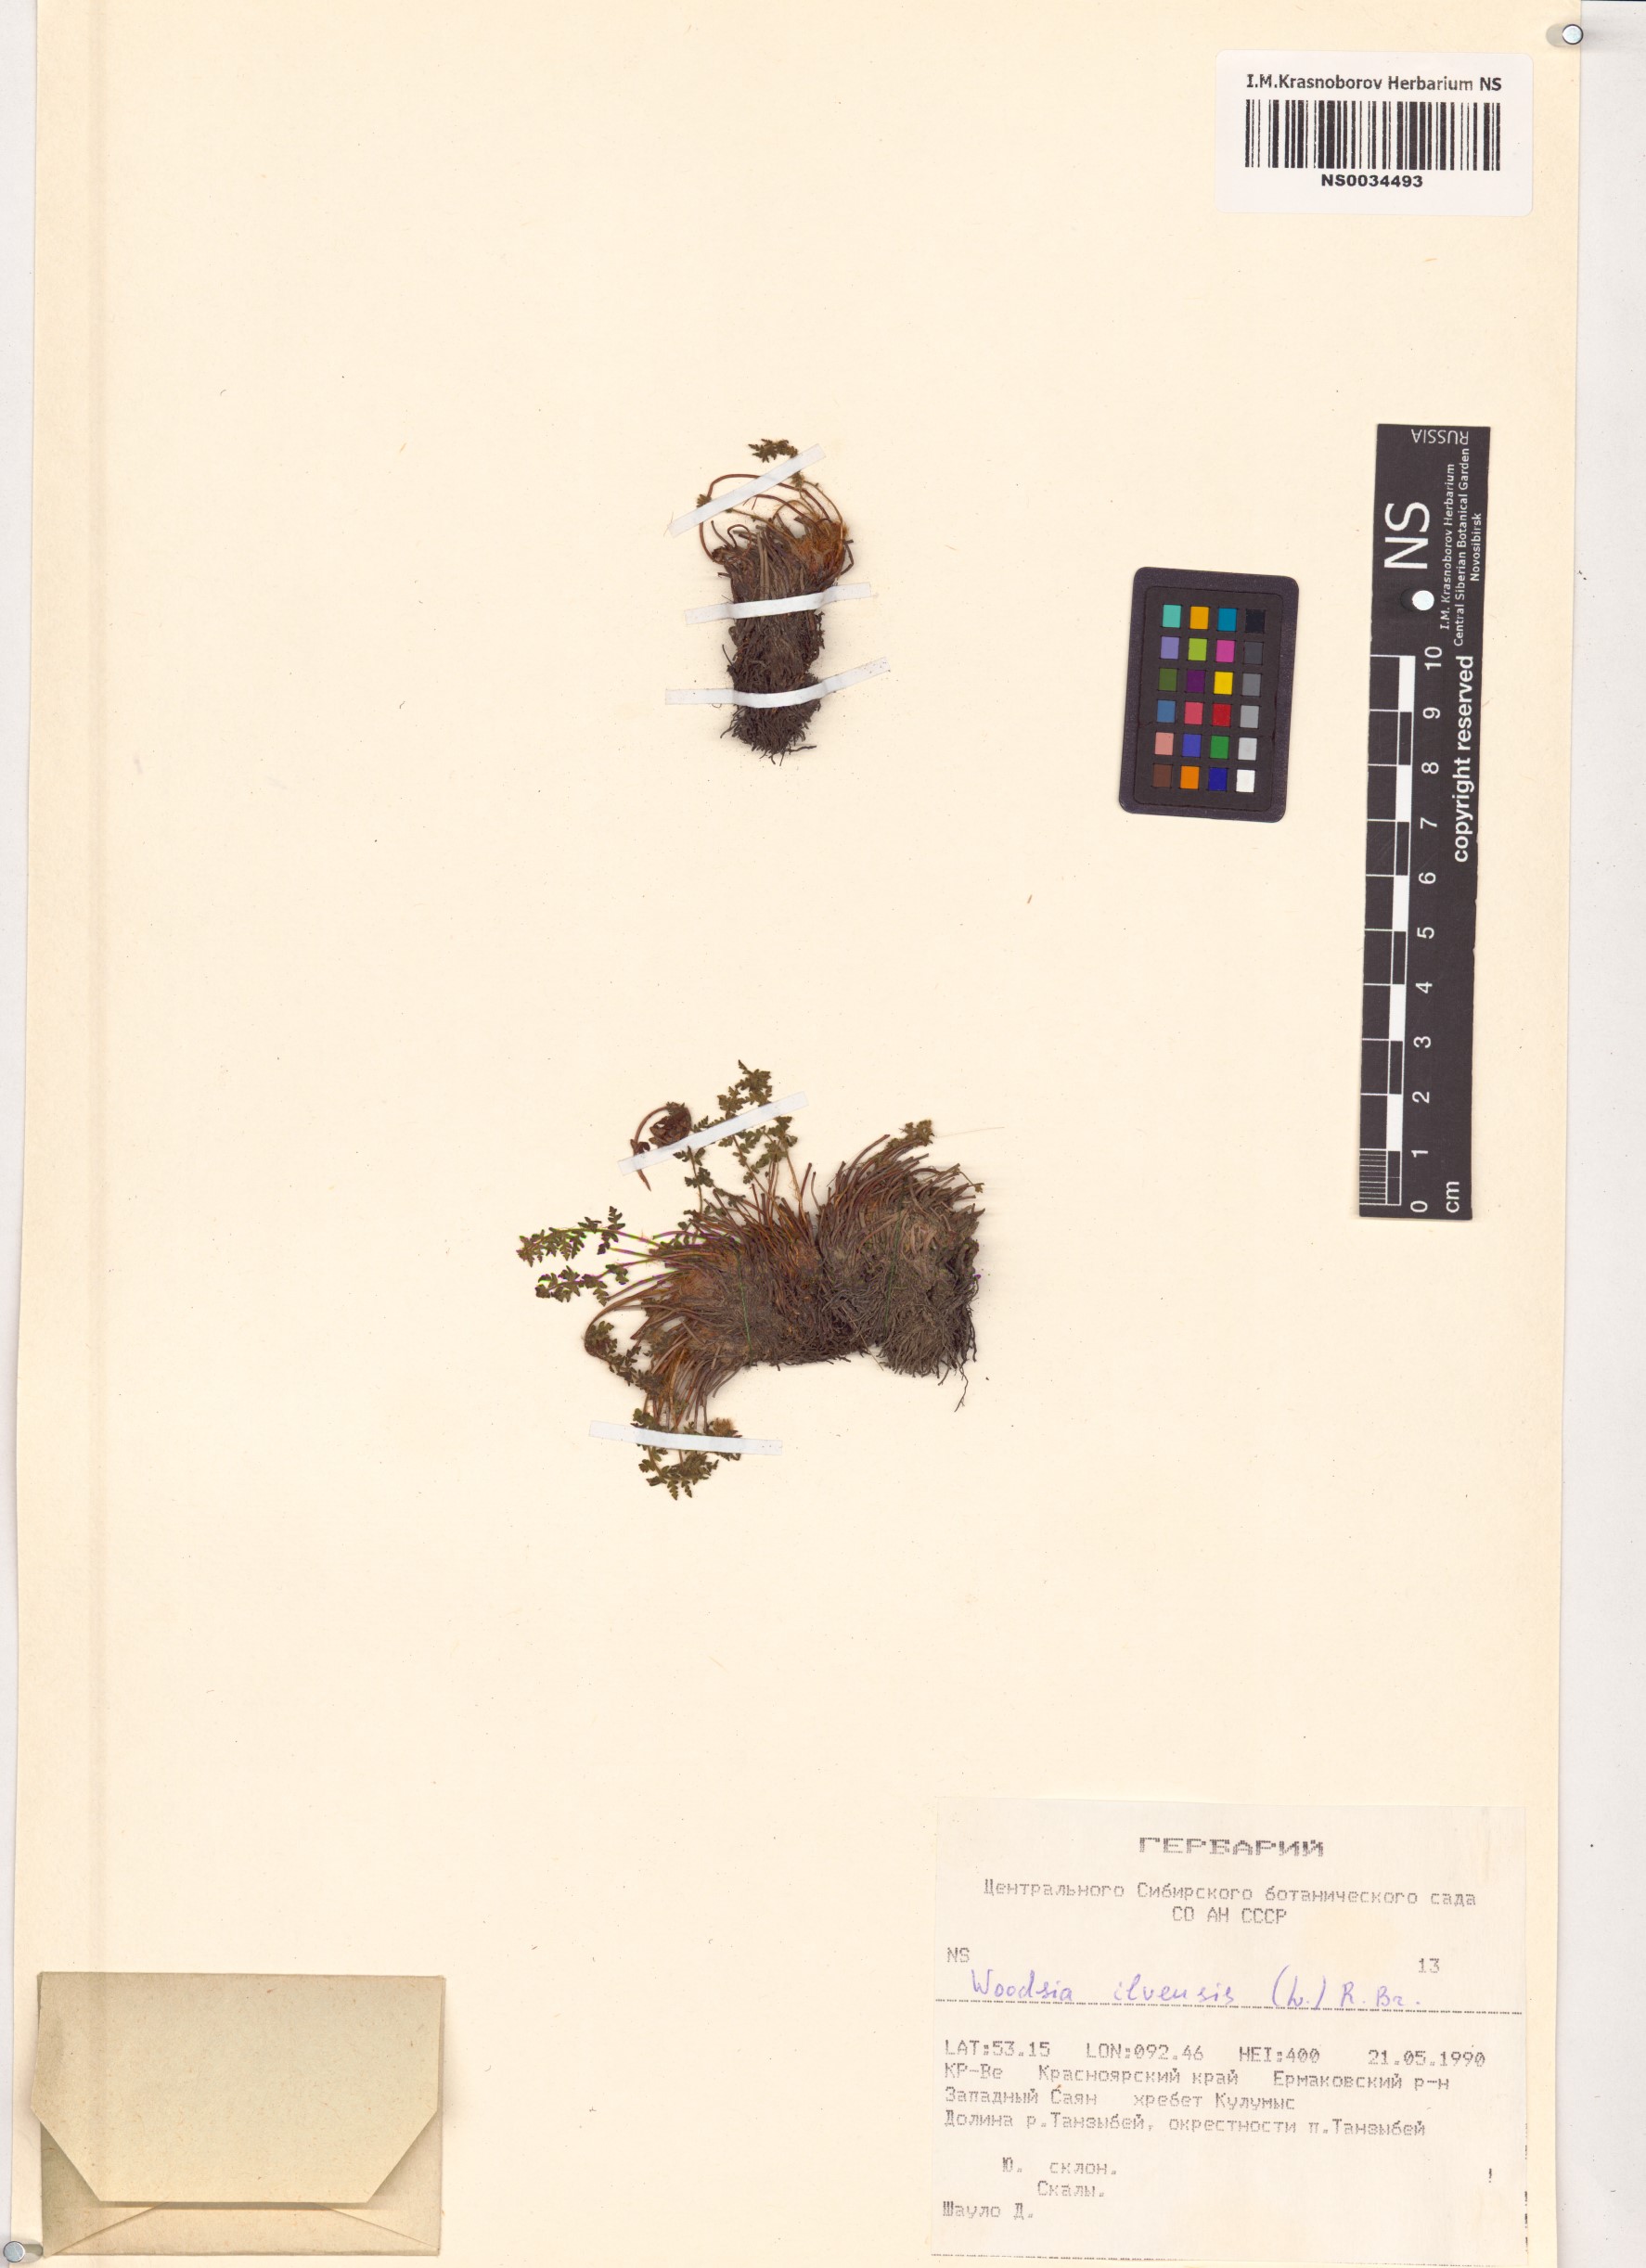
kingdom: Plantae
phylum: Tracheophyta
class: Polypodiopsida
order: Polypodiales
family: Woodsiaceae
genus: Woodsia
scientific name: Woodsia ilvensis
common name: Fragrant woodsia
